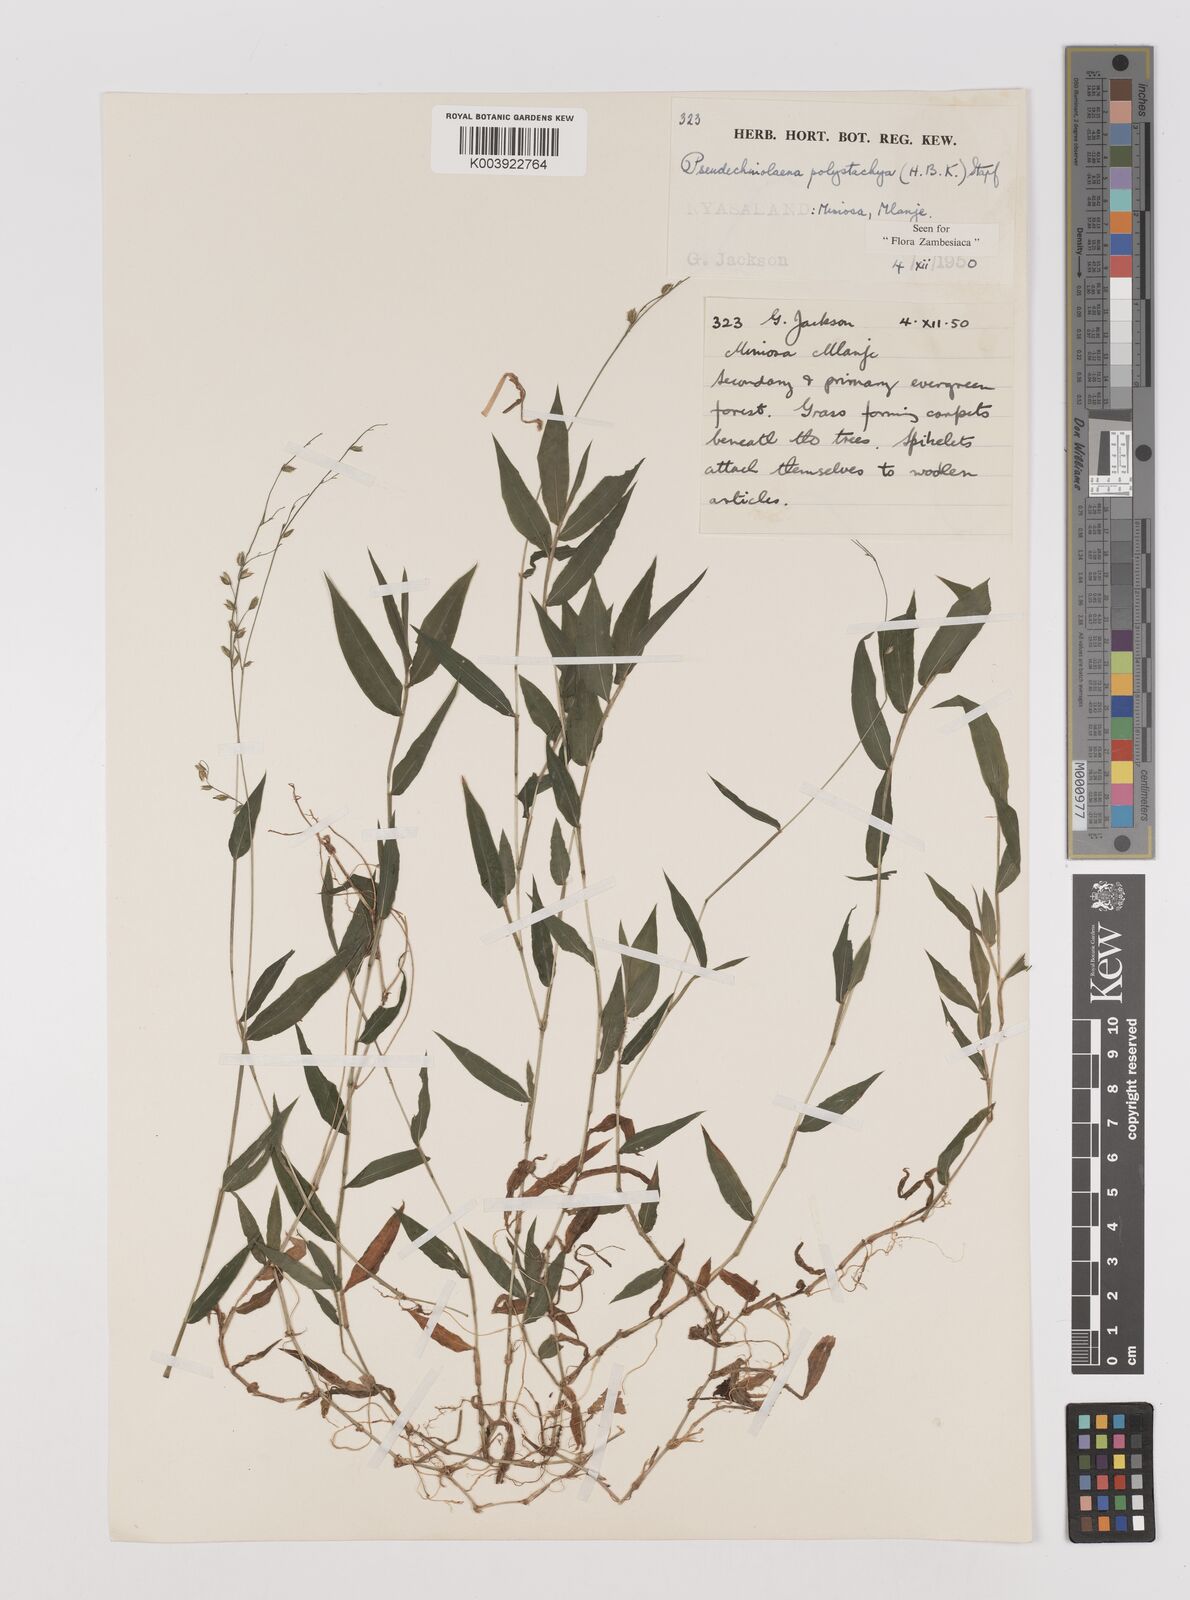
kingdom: Plantae
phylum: Tracheophyta
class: Liliopsida
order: Poales
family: Poaceae
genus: Pseudechinolaena
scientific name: Pseudechinolaena polystachya
